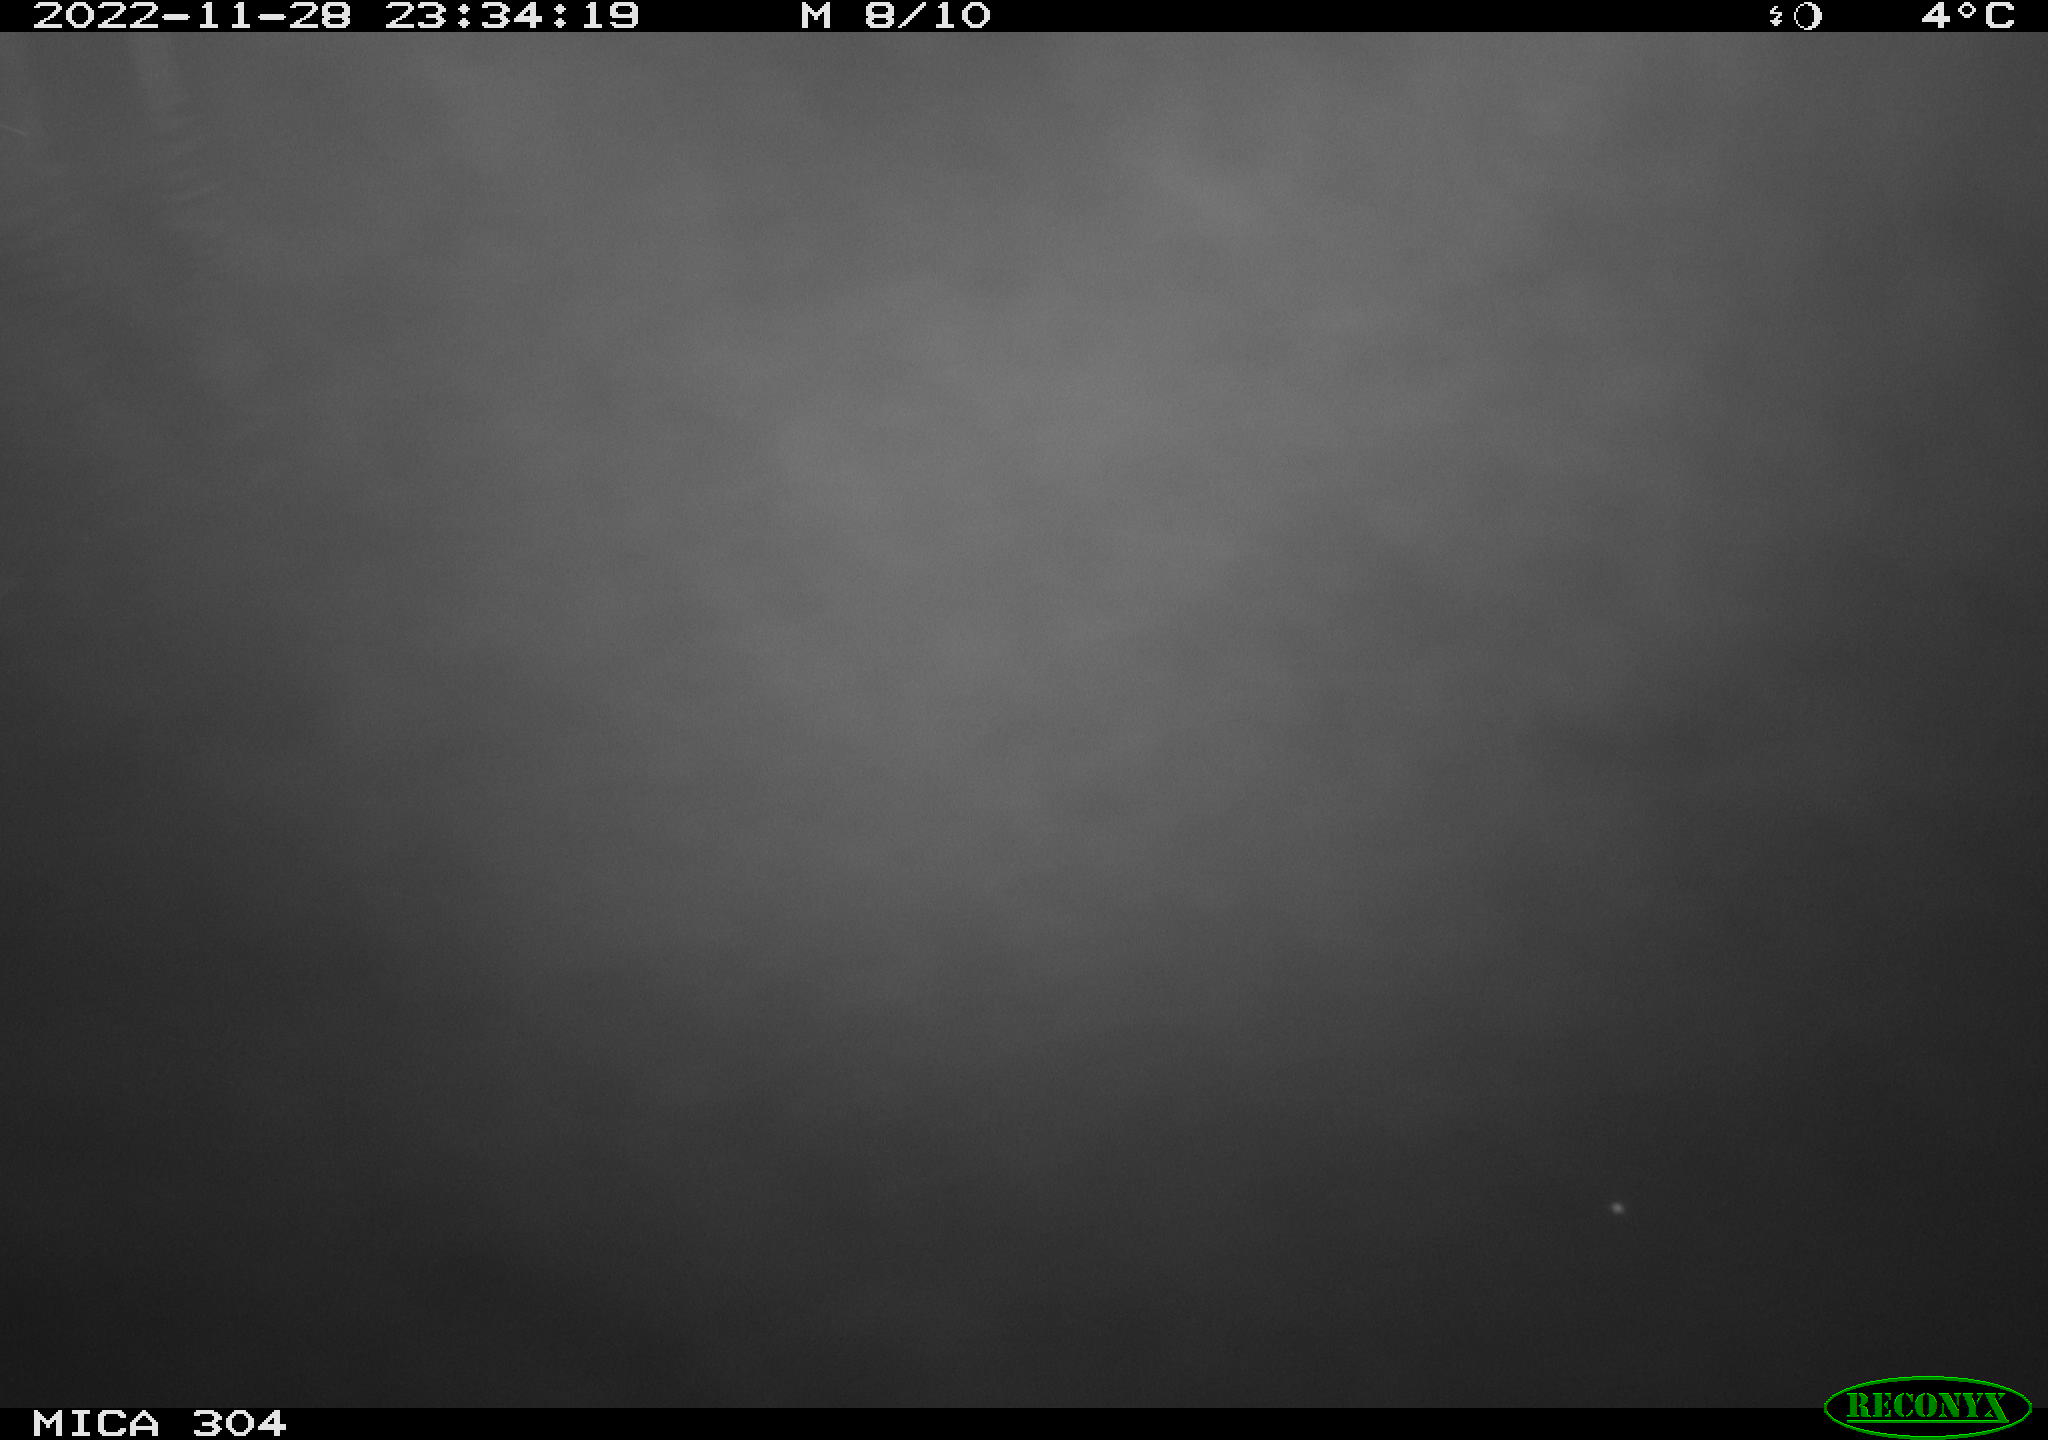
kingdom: Animalia
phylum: Chordata
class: Mammalia
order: Rodentia
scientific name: Rodentia
